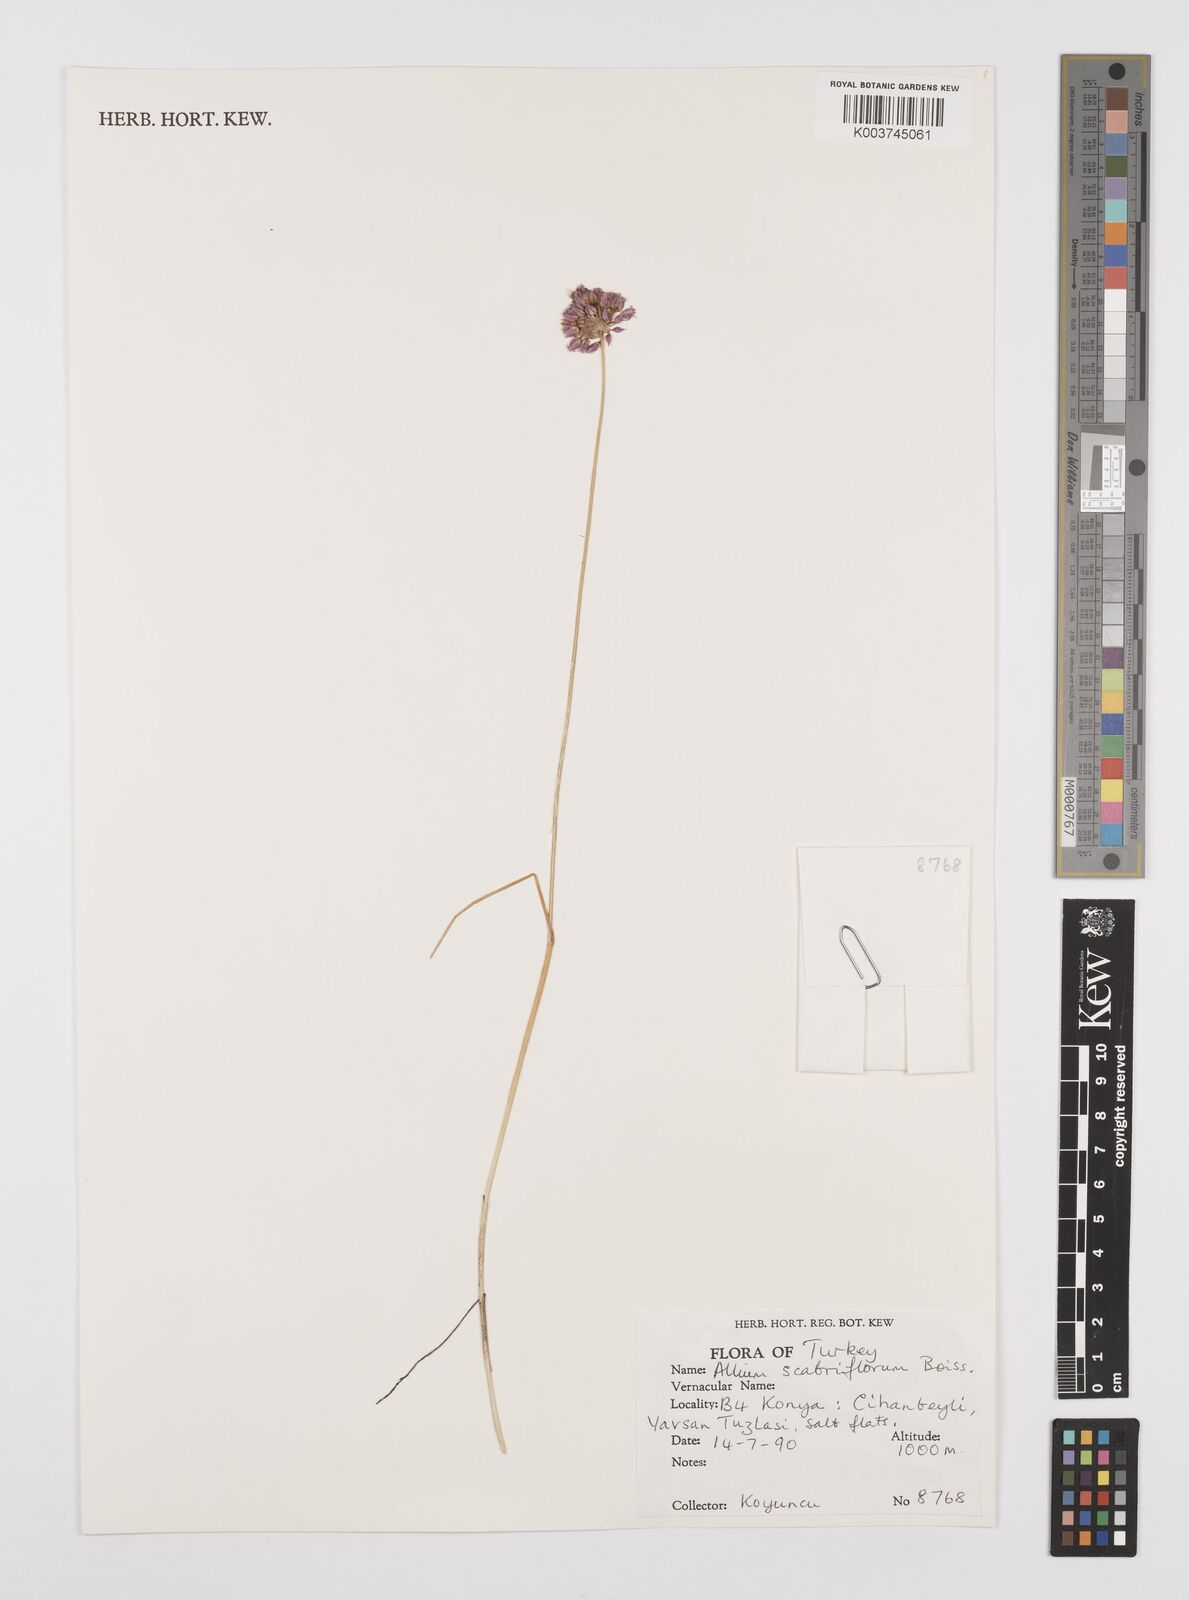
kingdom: Plantae
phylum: Tracheophyta
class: Liliopsida
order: Asparagales
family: Amaryllidaceae
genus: Allium
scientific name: Allium scabriflorum
